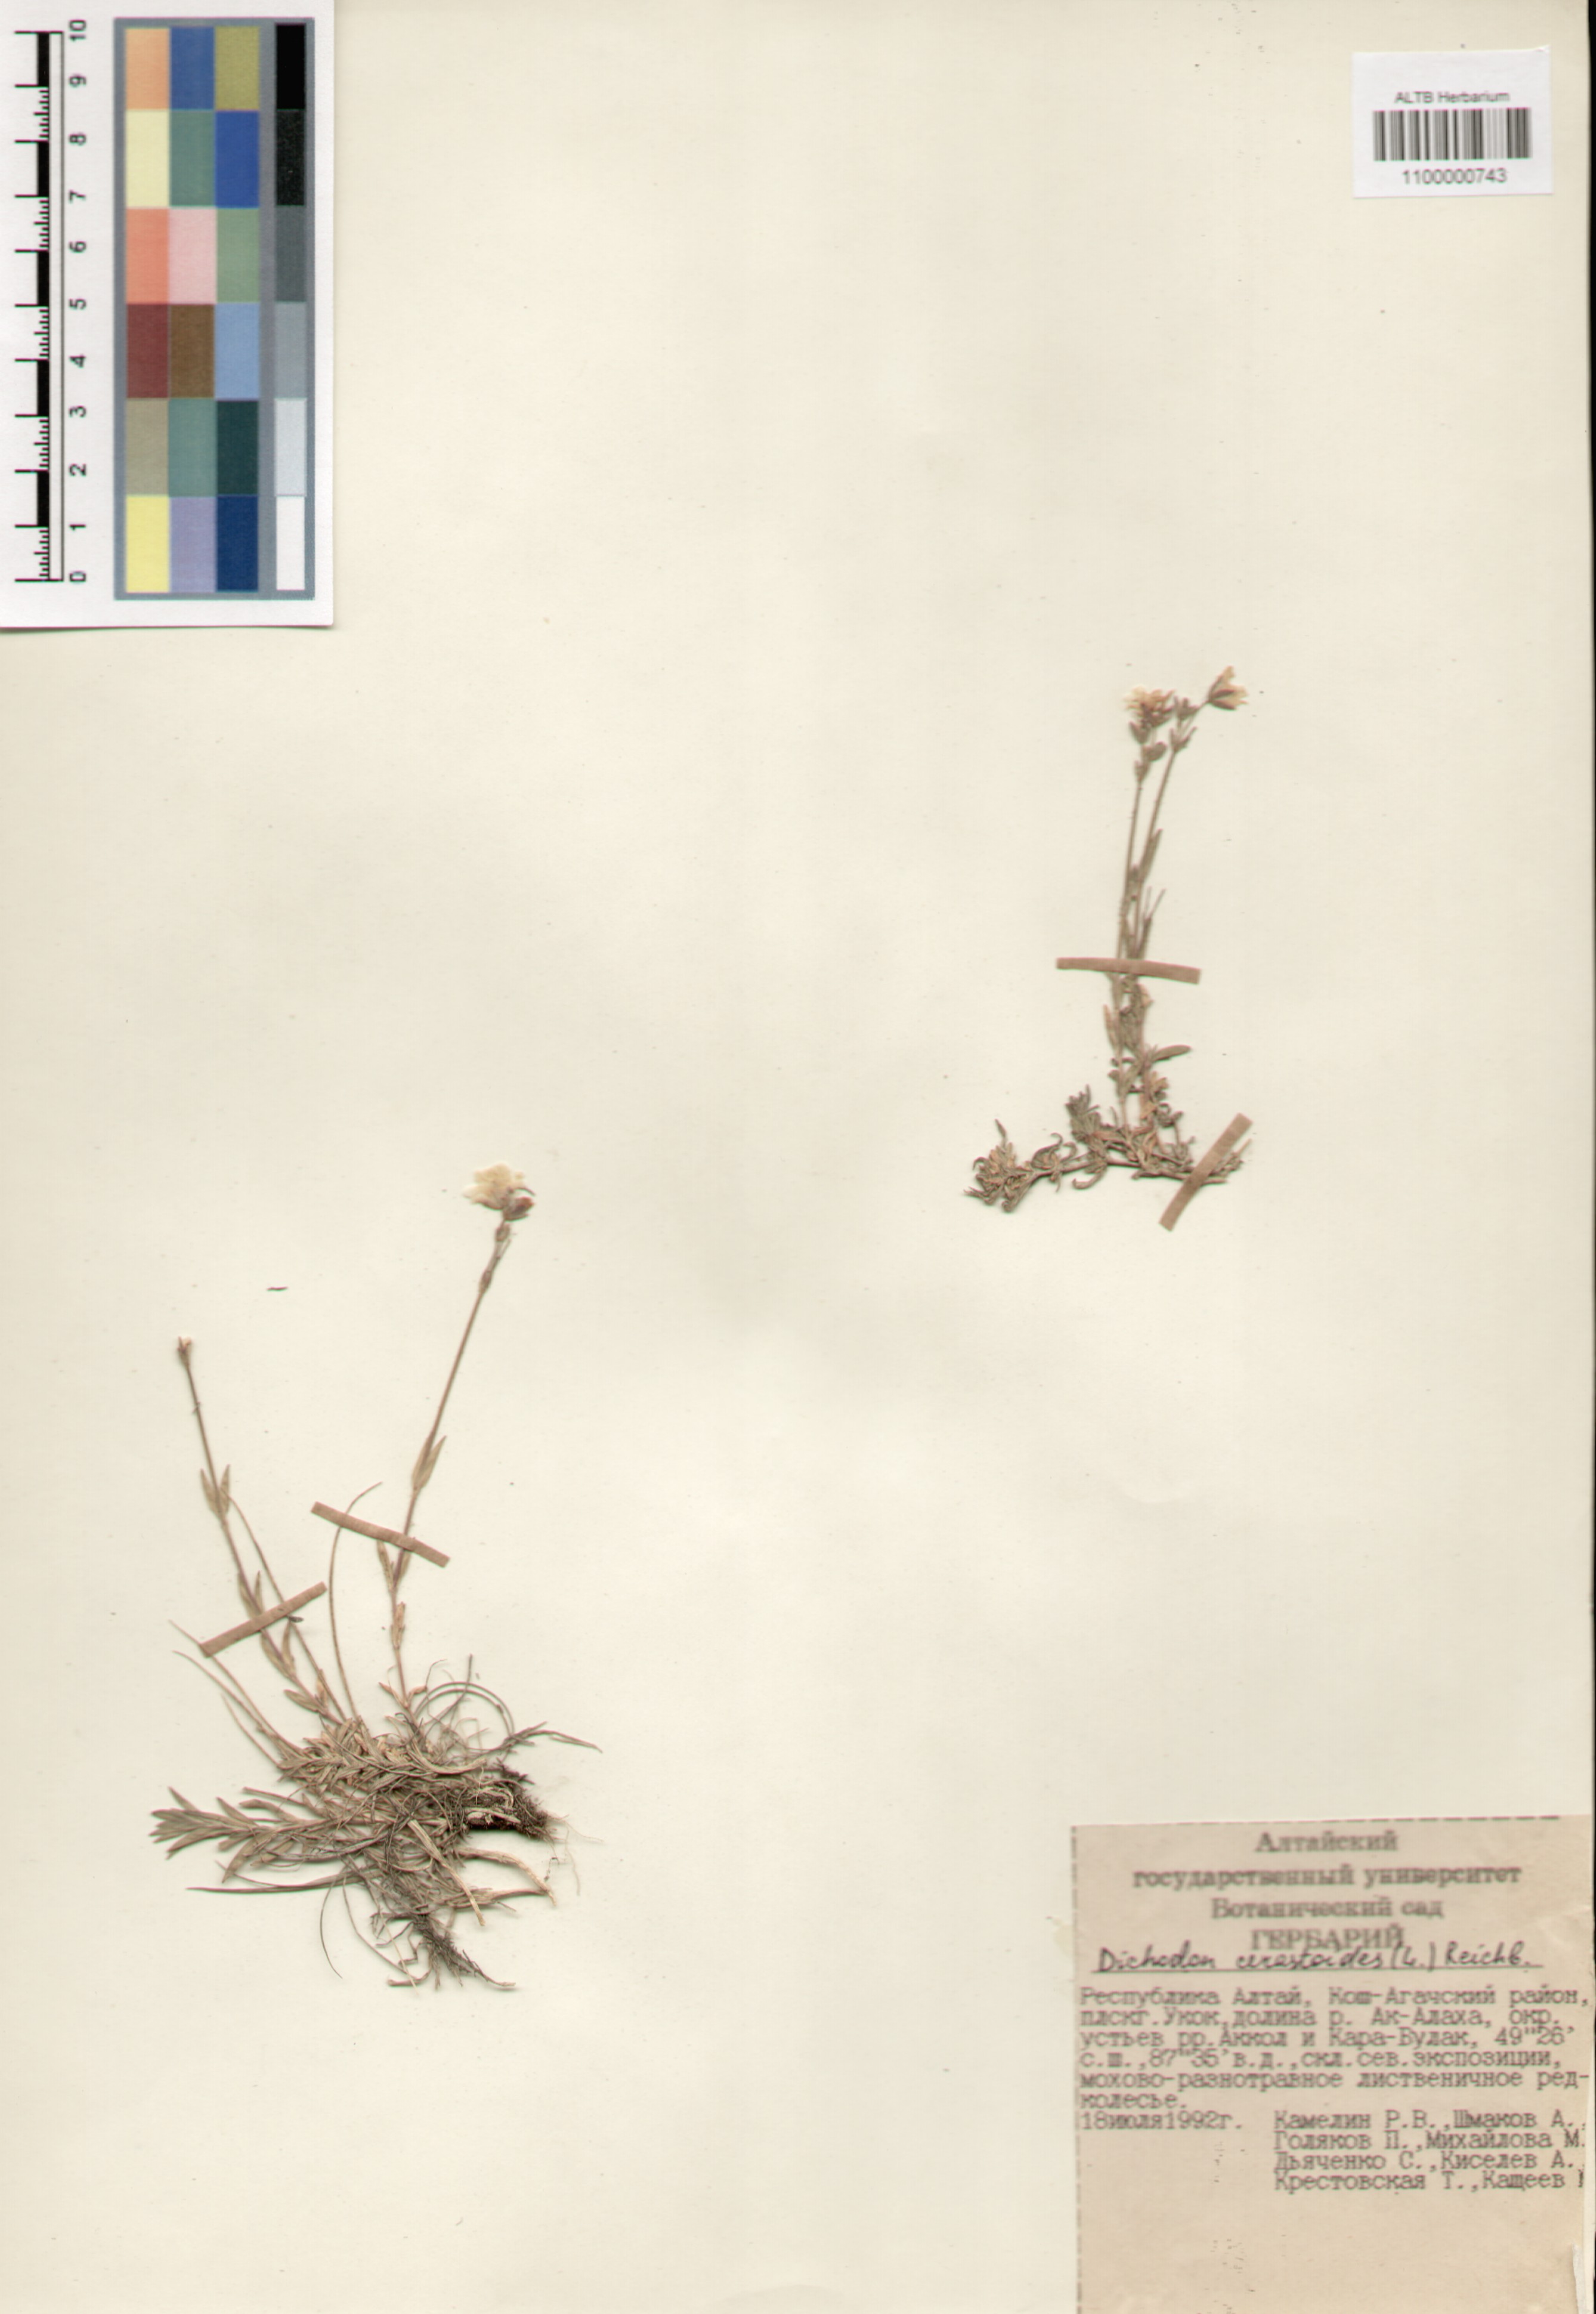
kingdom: Plantae
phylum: Tracheophyta
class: Magnoliopsida
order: Caryophyllales
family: Caryophyllaceae
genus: Dichodon
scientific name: Dichodon cerastoides
